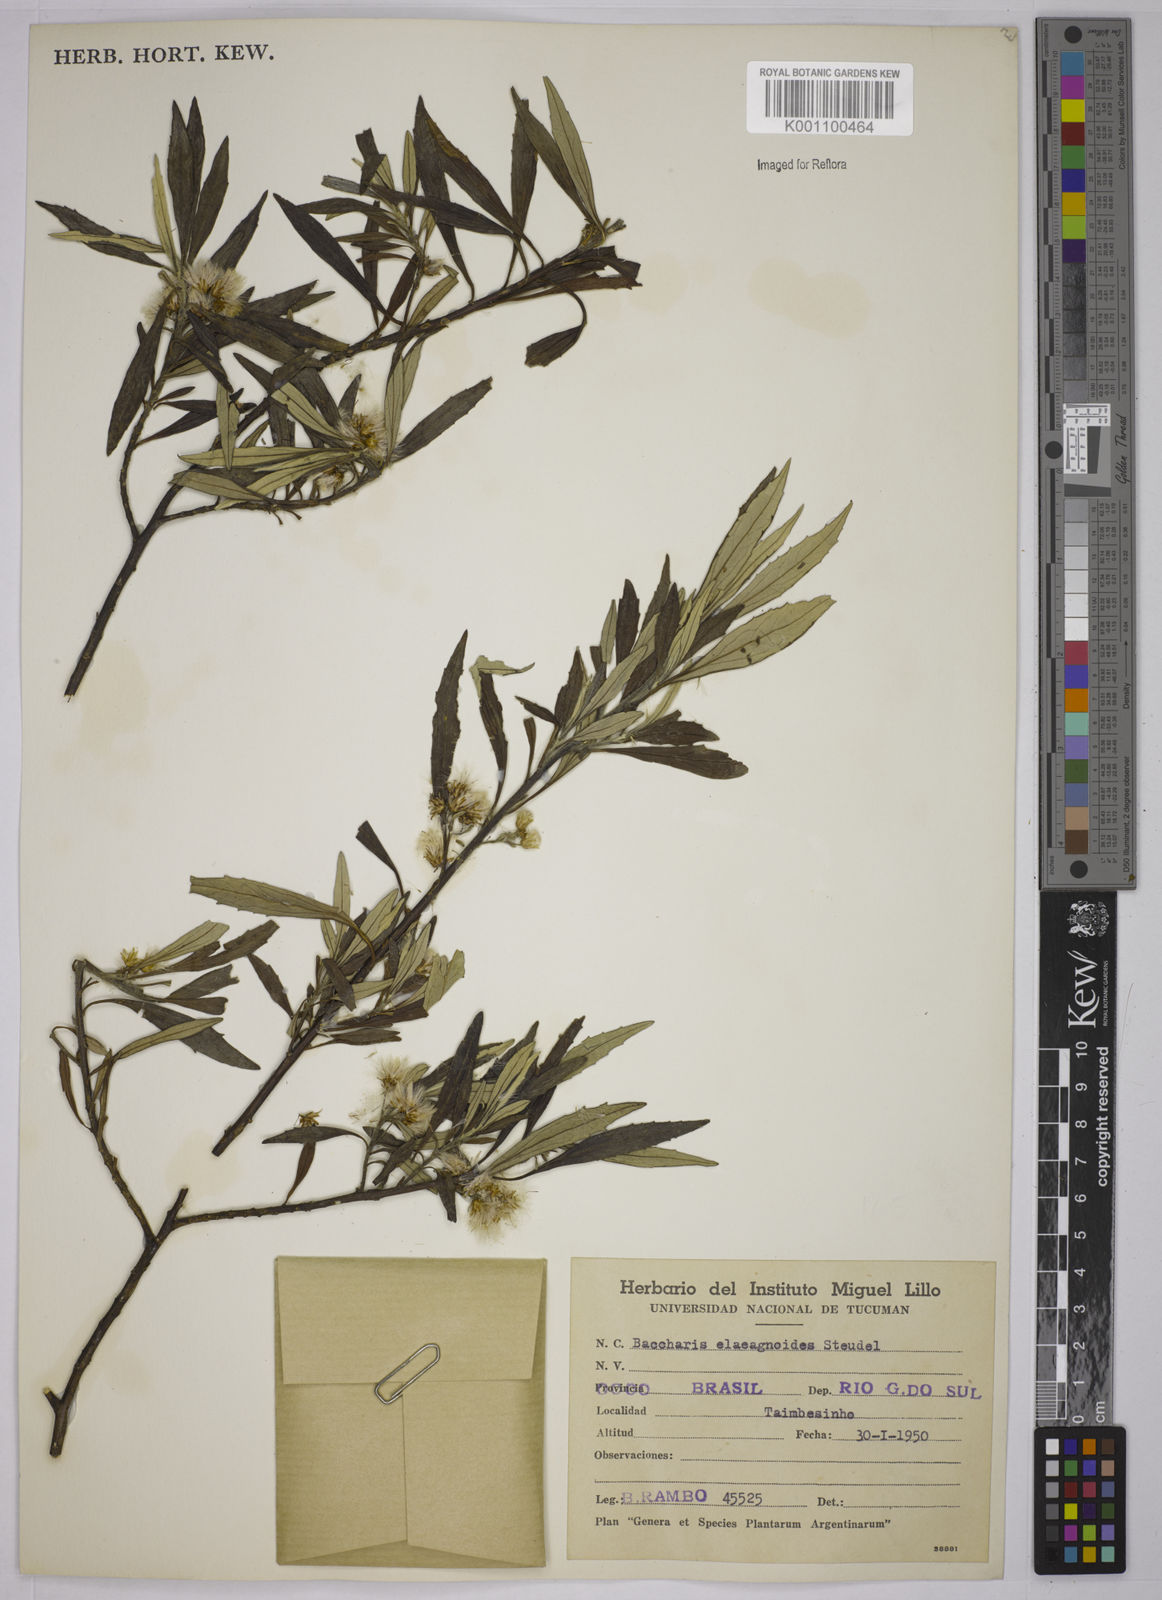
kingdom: Plantae
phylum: Tracheophyta
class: Magnoliopsida
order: Asterales
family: Asteraceae
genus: Baccharis
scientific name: Baccharis
